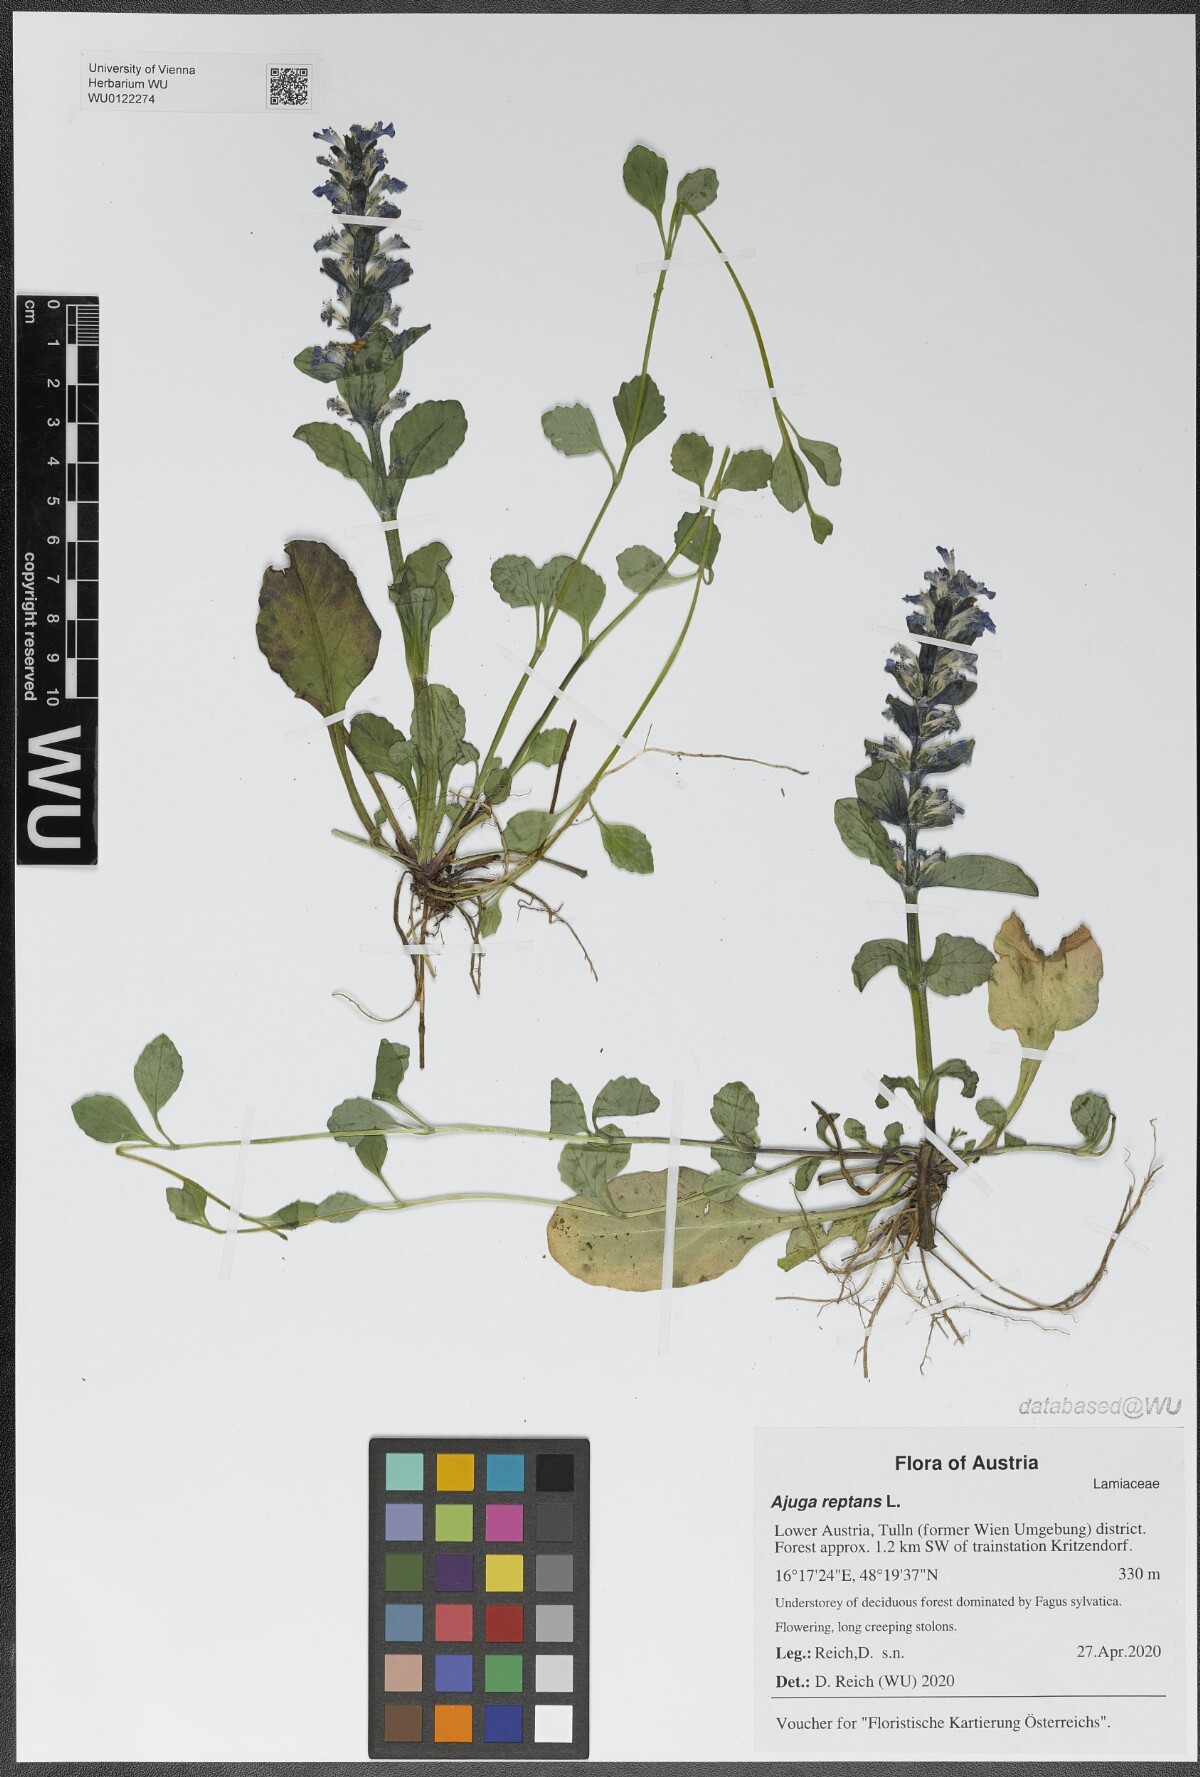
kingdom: Plantae
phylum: Tracheophyta
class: Magnoliopsida
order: Lamiales
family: Lamiaceae
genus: Ajuga
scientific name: Ajuga reptans
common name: Bugle
